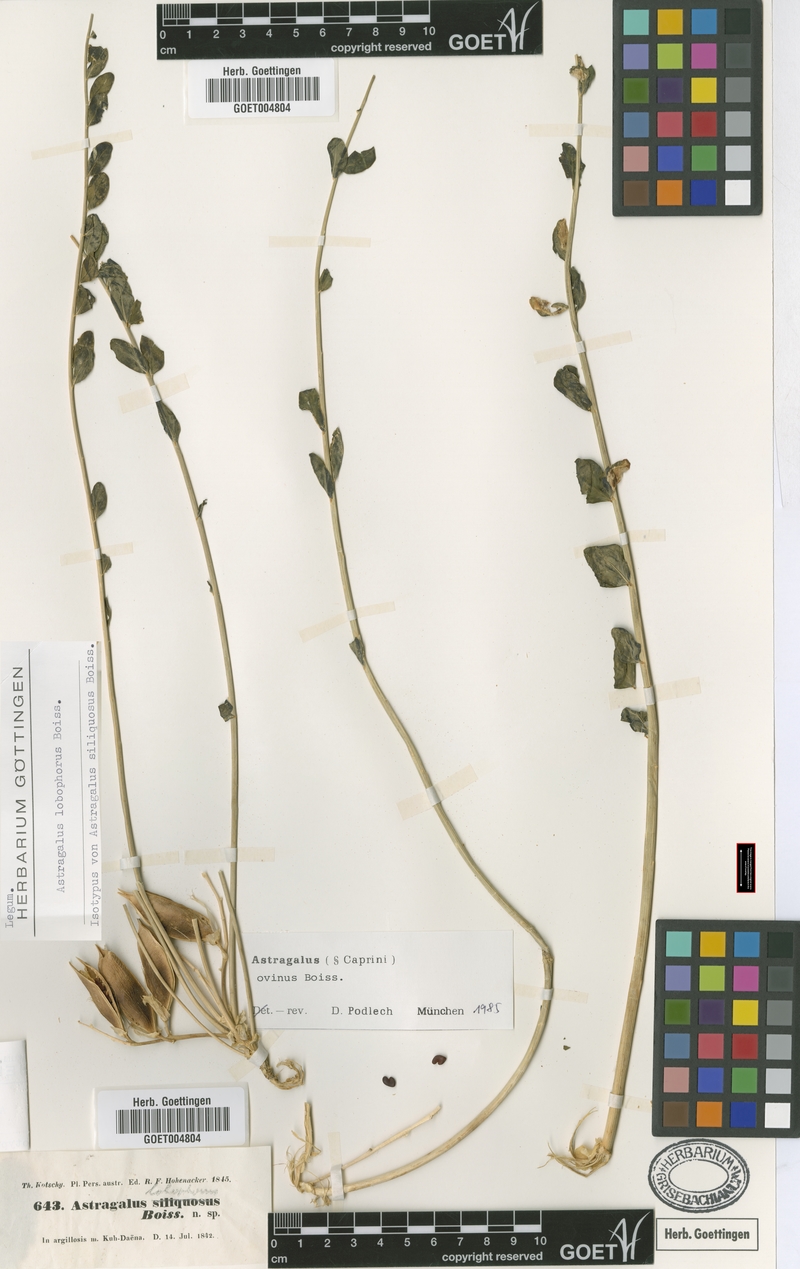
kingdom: Plantae
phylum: Tracheophyta
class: Magnoliopsida
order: Fabales
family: Fabaceae
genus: Astragalus
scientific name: Astragalus ovinus
